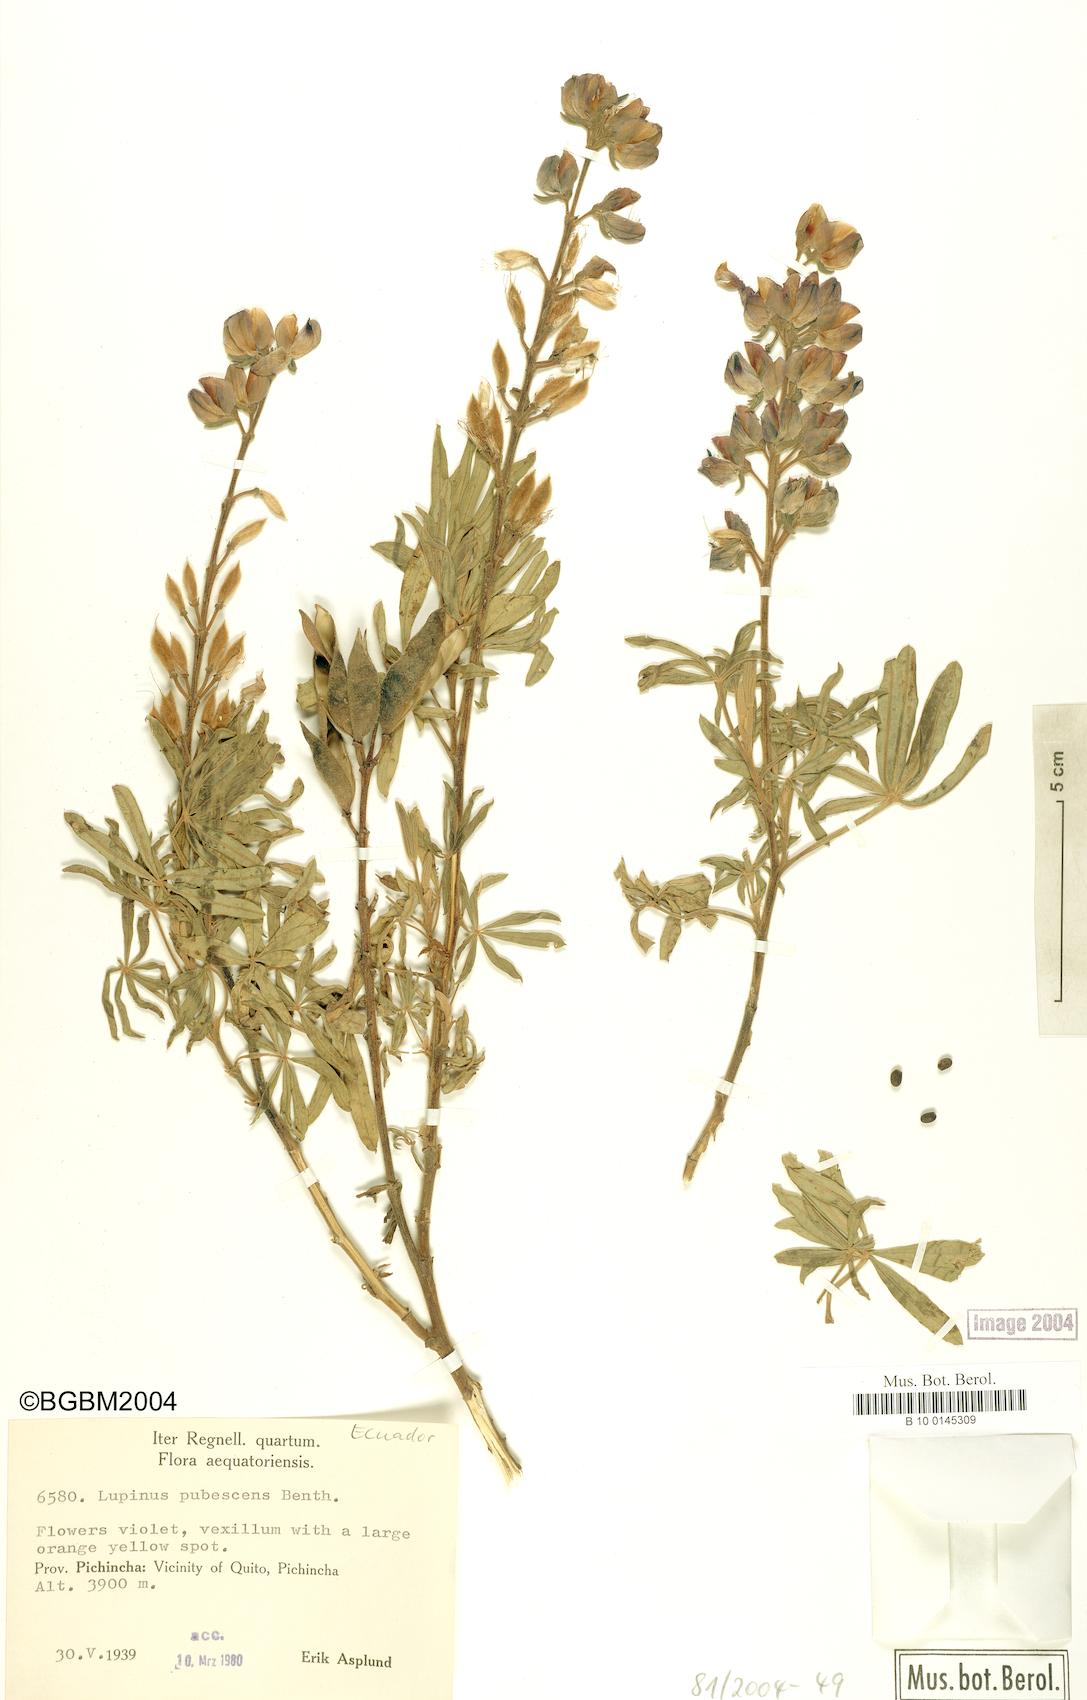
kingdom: Plantae
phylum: Tracheophyta
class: Magnoliopsida
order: Fabales
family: Fabaceae
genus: Lupinus
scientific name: Lupinus pubescens
